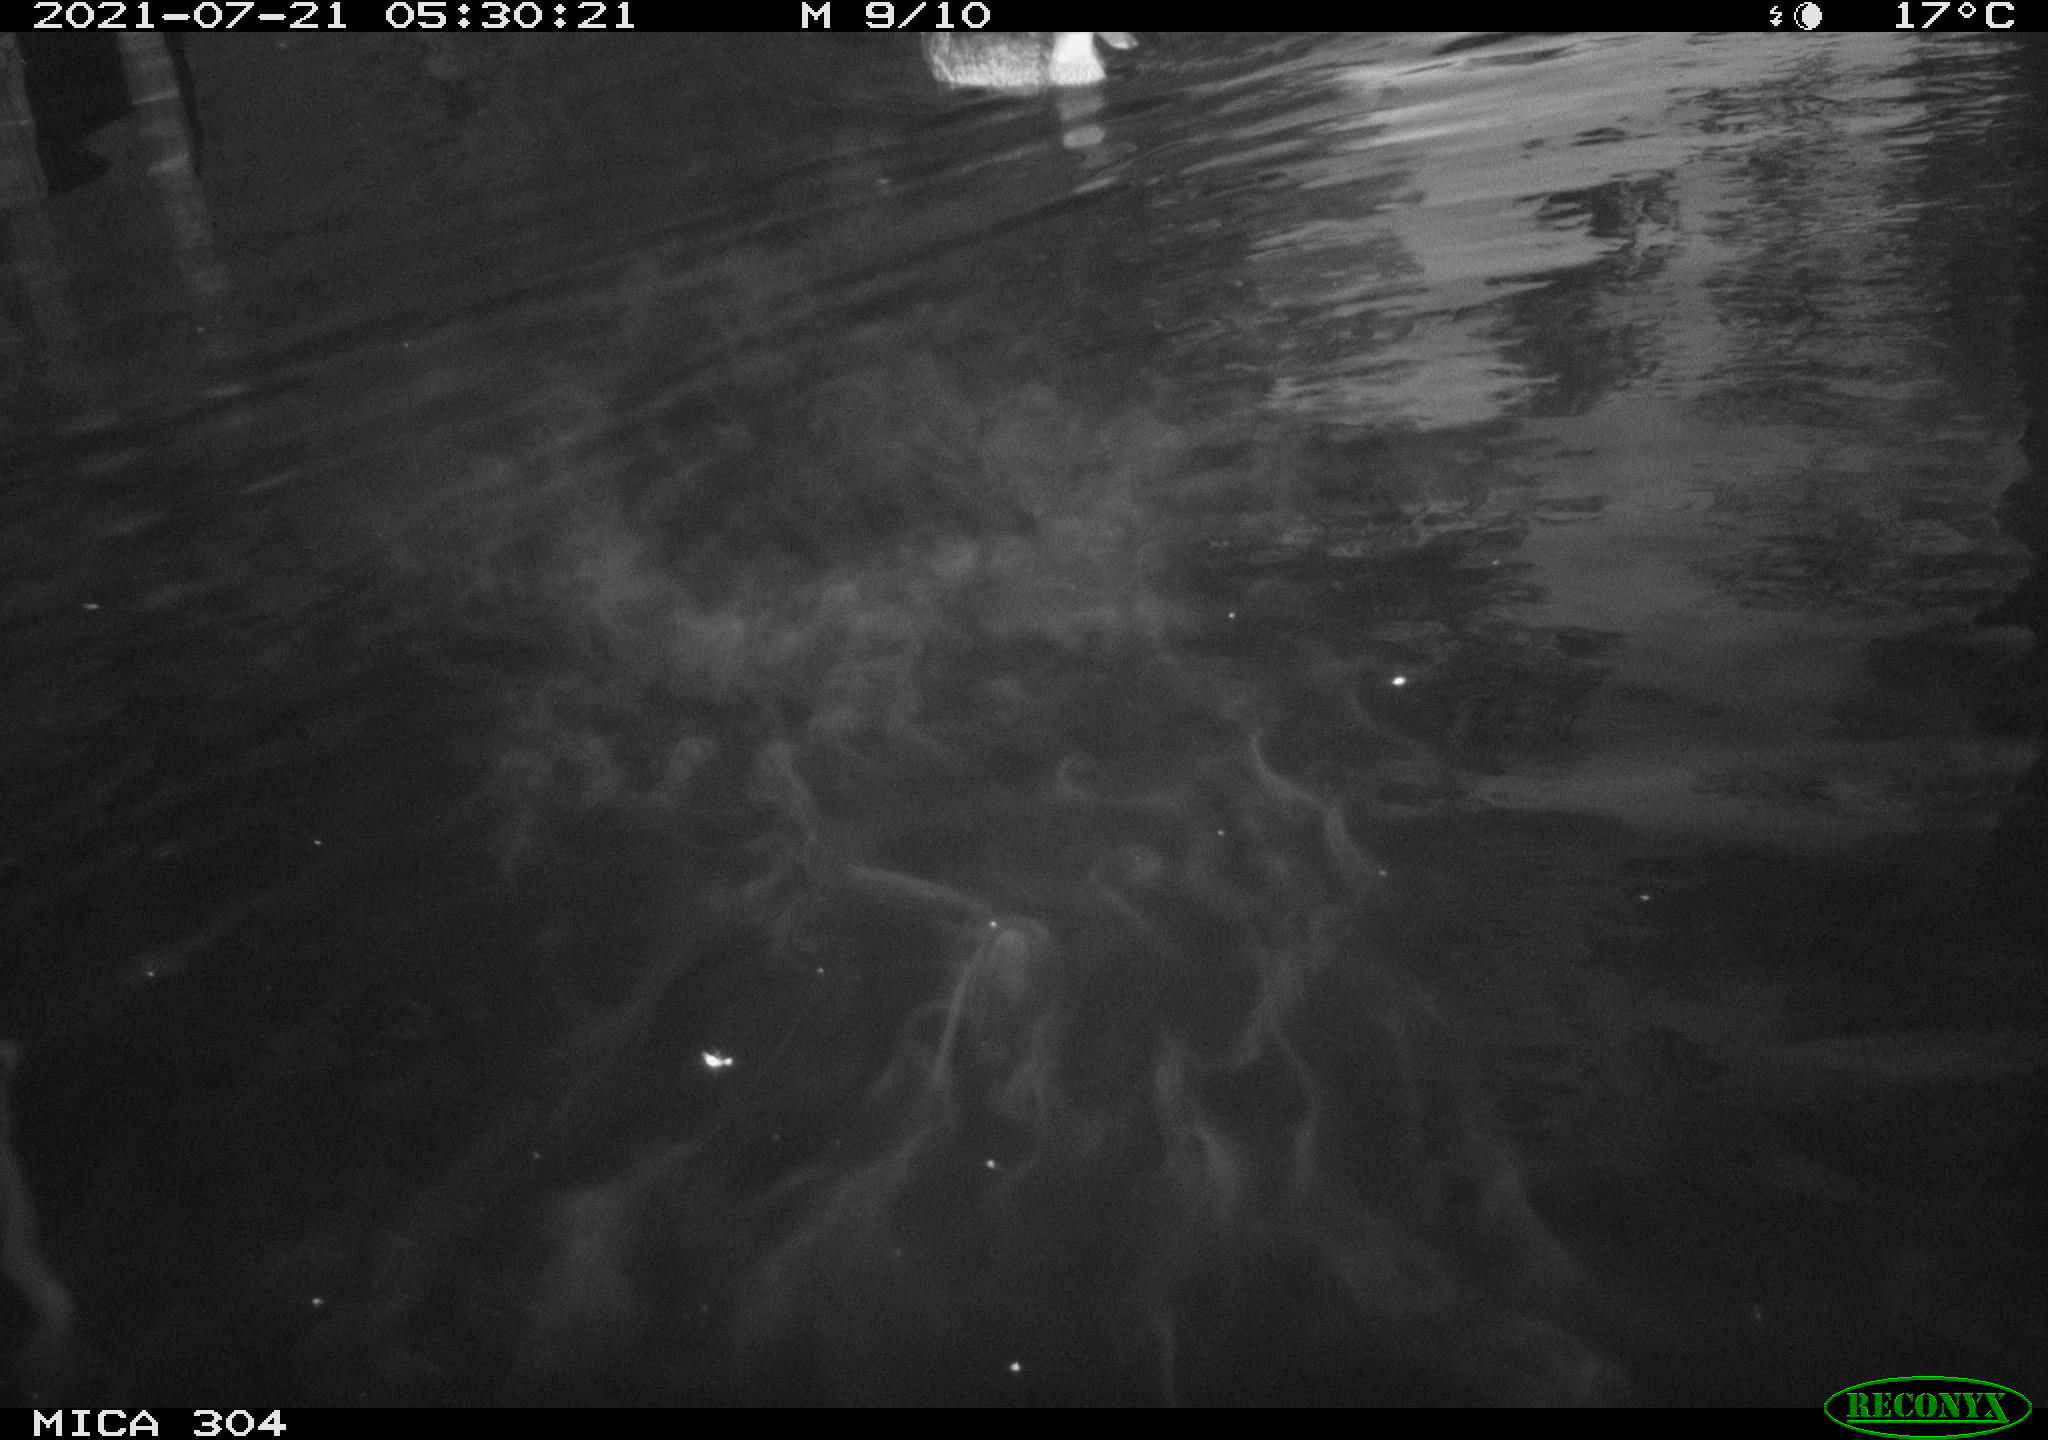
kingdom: Animalia
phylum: Chordata
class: Aves
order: Anseriformes
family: Anatidae
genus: Anas
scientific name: Anas platyrhynchos
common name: Mallard
